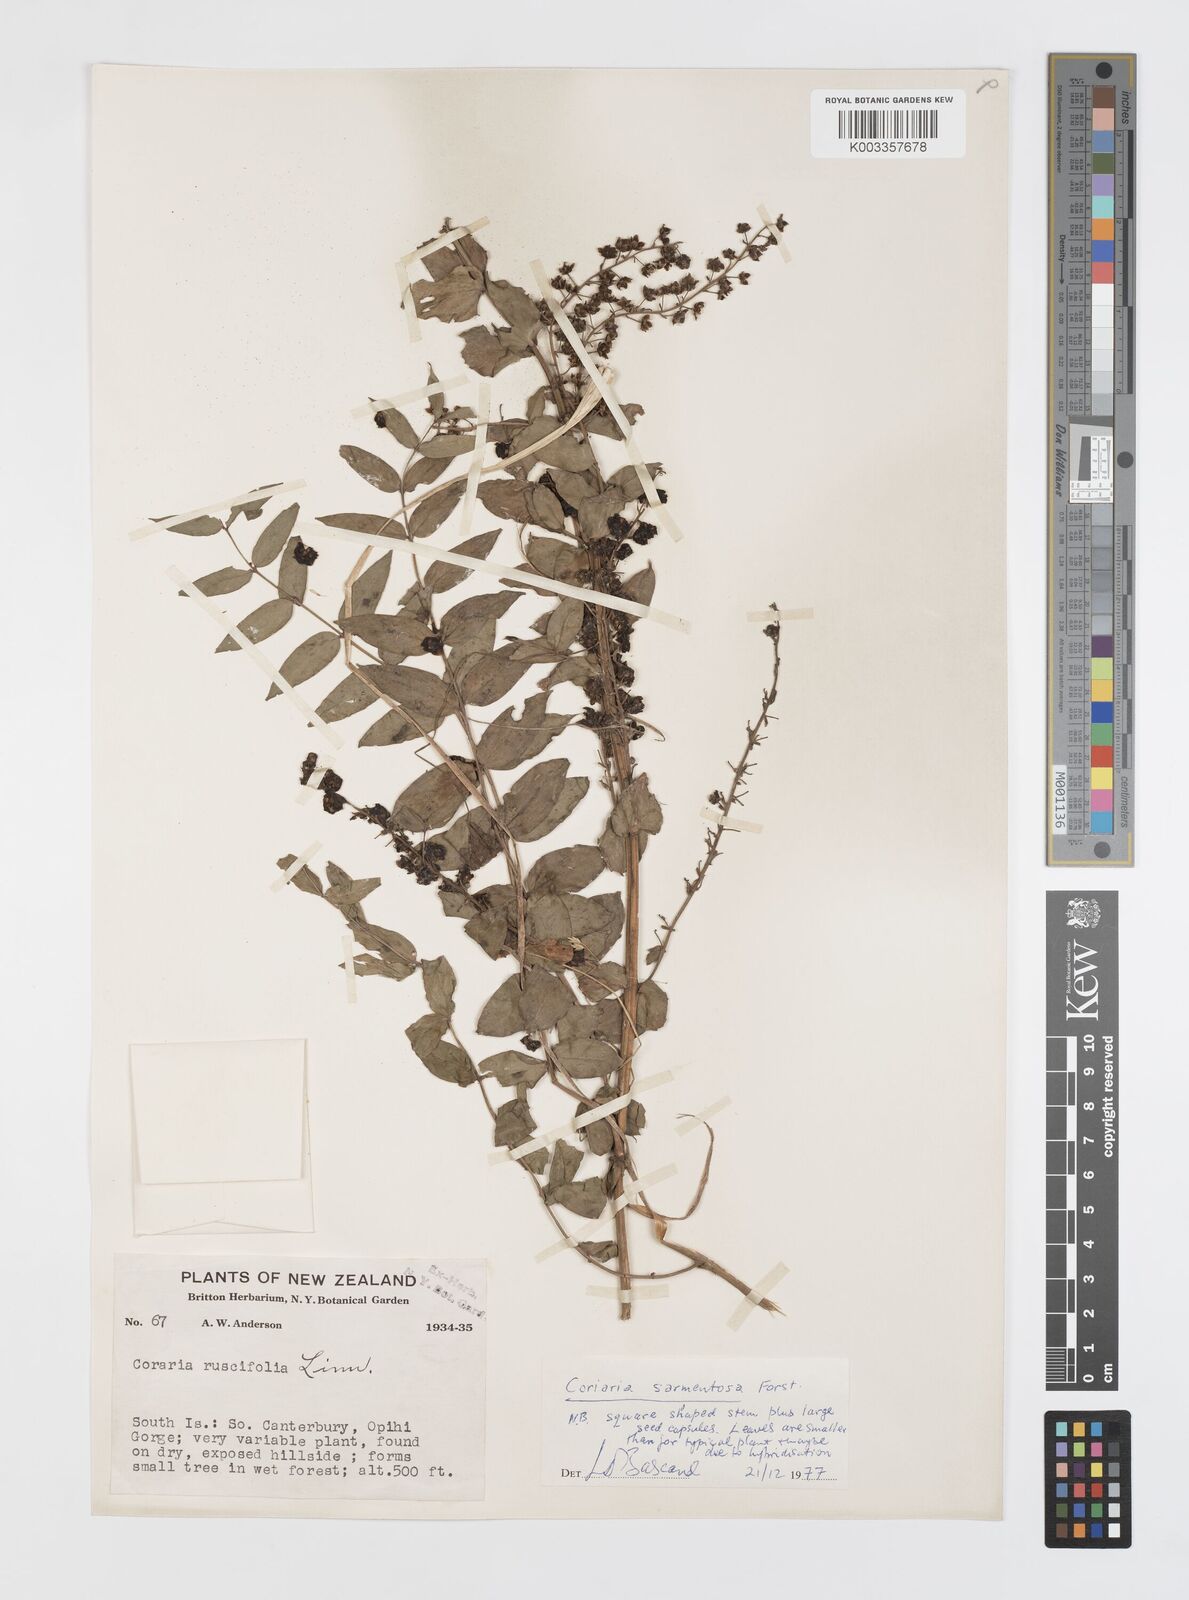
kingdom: Plantae
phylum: Tracheophyta
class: Magnoliopsida
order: Cucurbitales
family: Coriariaceae
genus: Coriaria
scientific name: Coriaria sarmentosa
